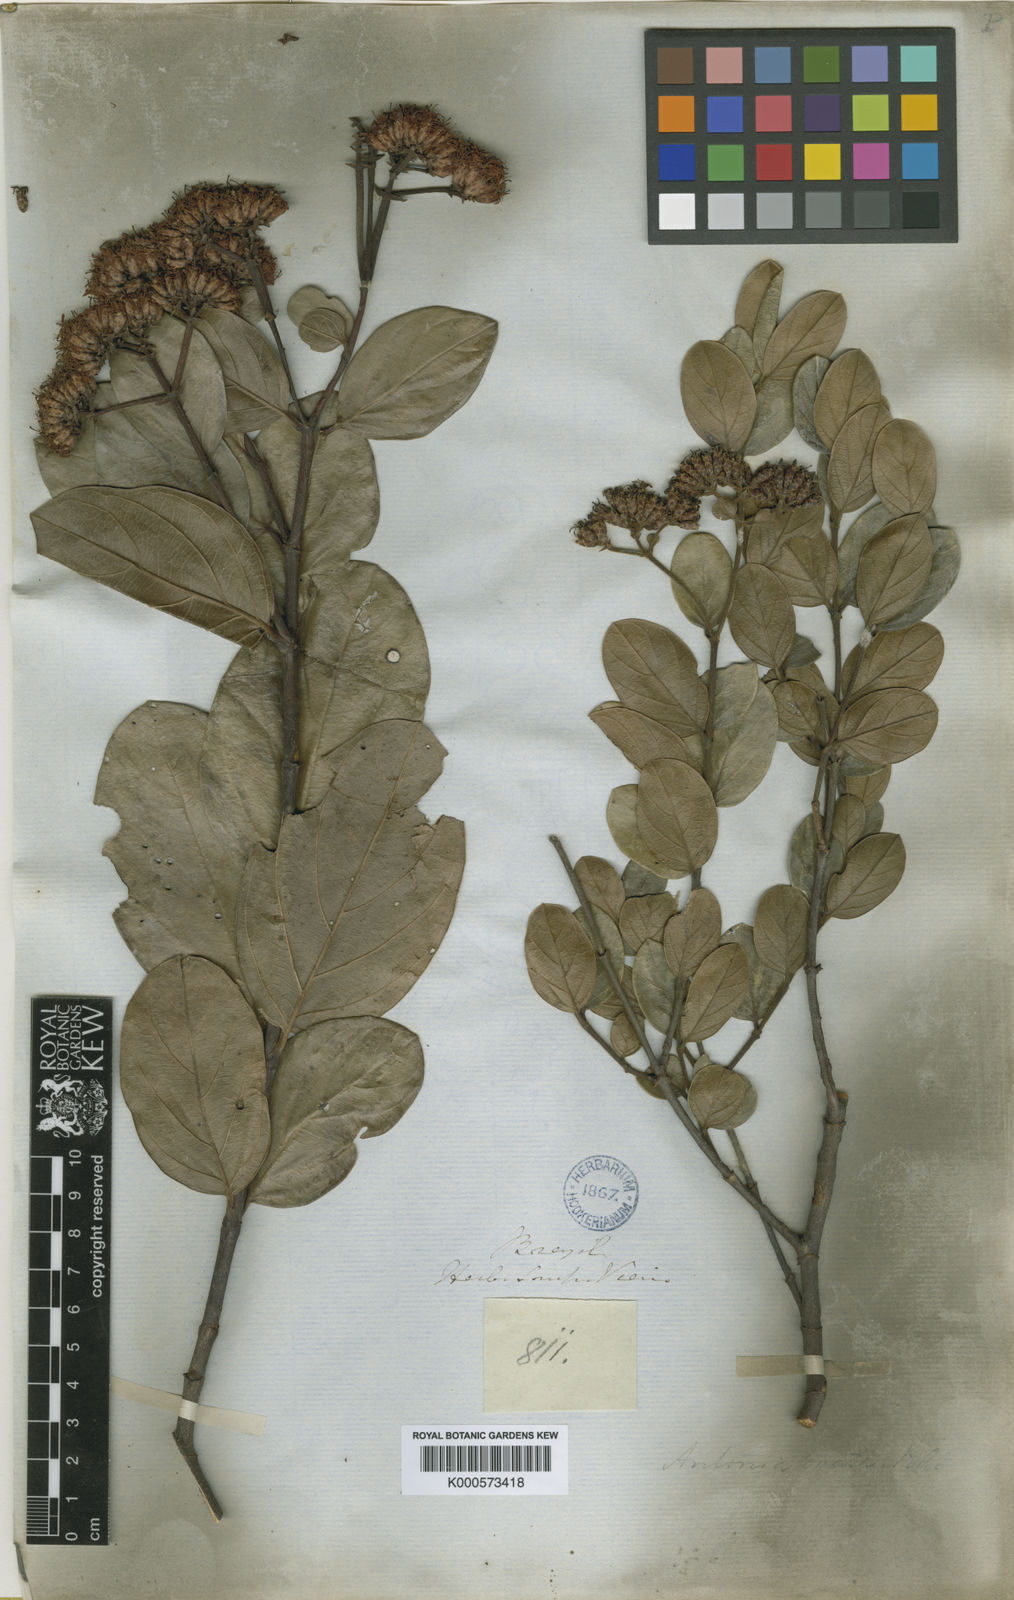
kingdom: Plantae
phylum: Tracheophyta
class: Magnoliopsida
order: Gentianales
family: Loganiaceae
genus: Antonia
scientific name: Antonia ovata
